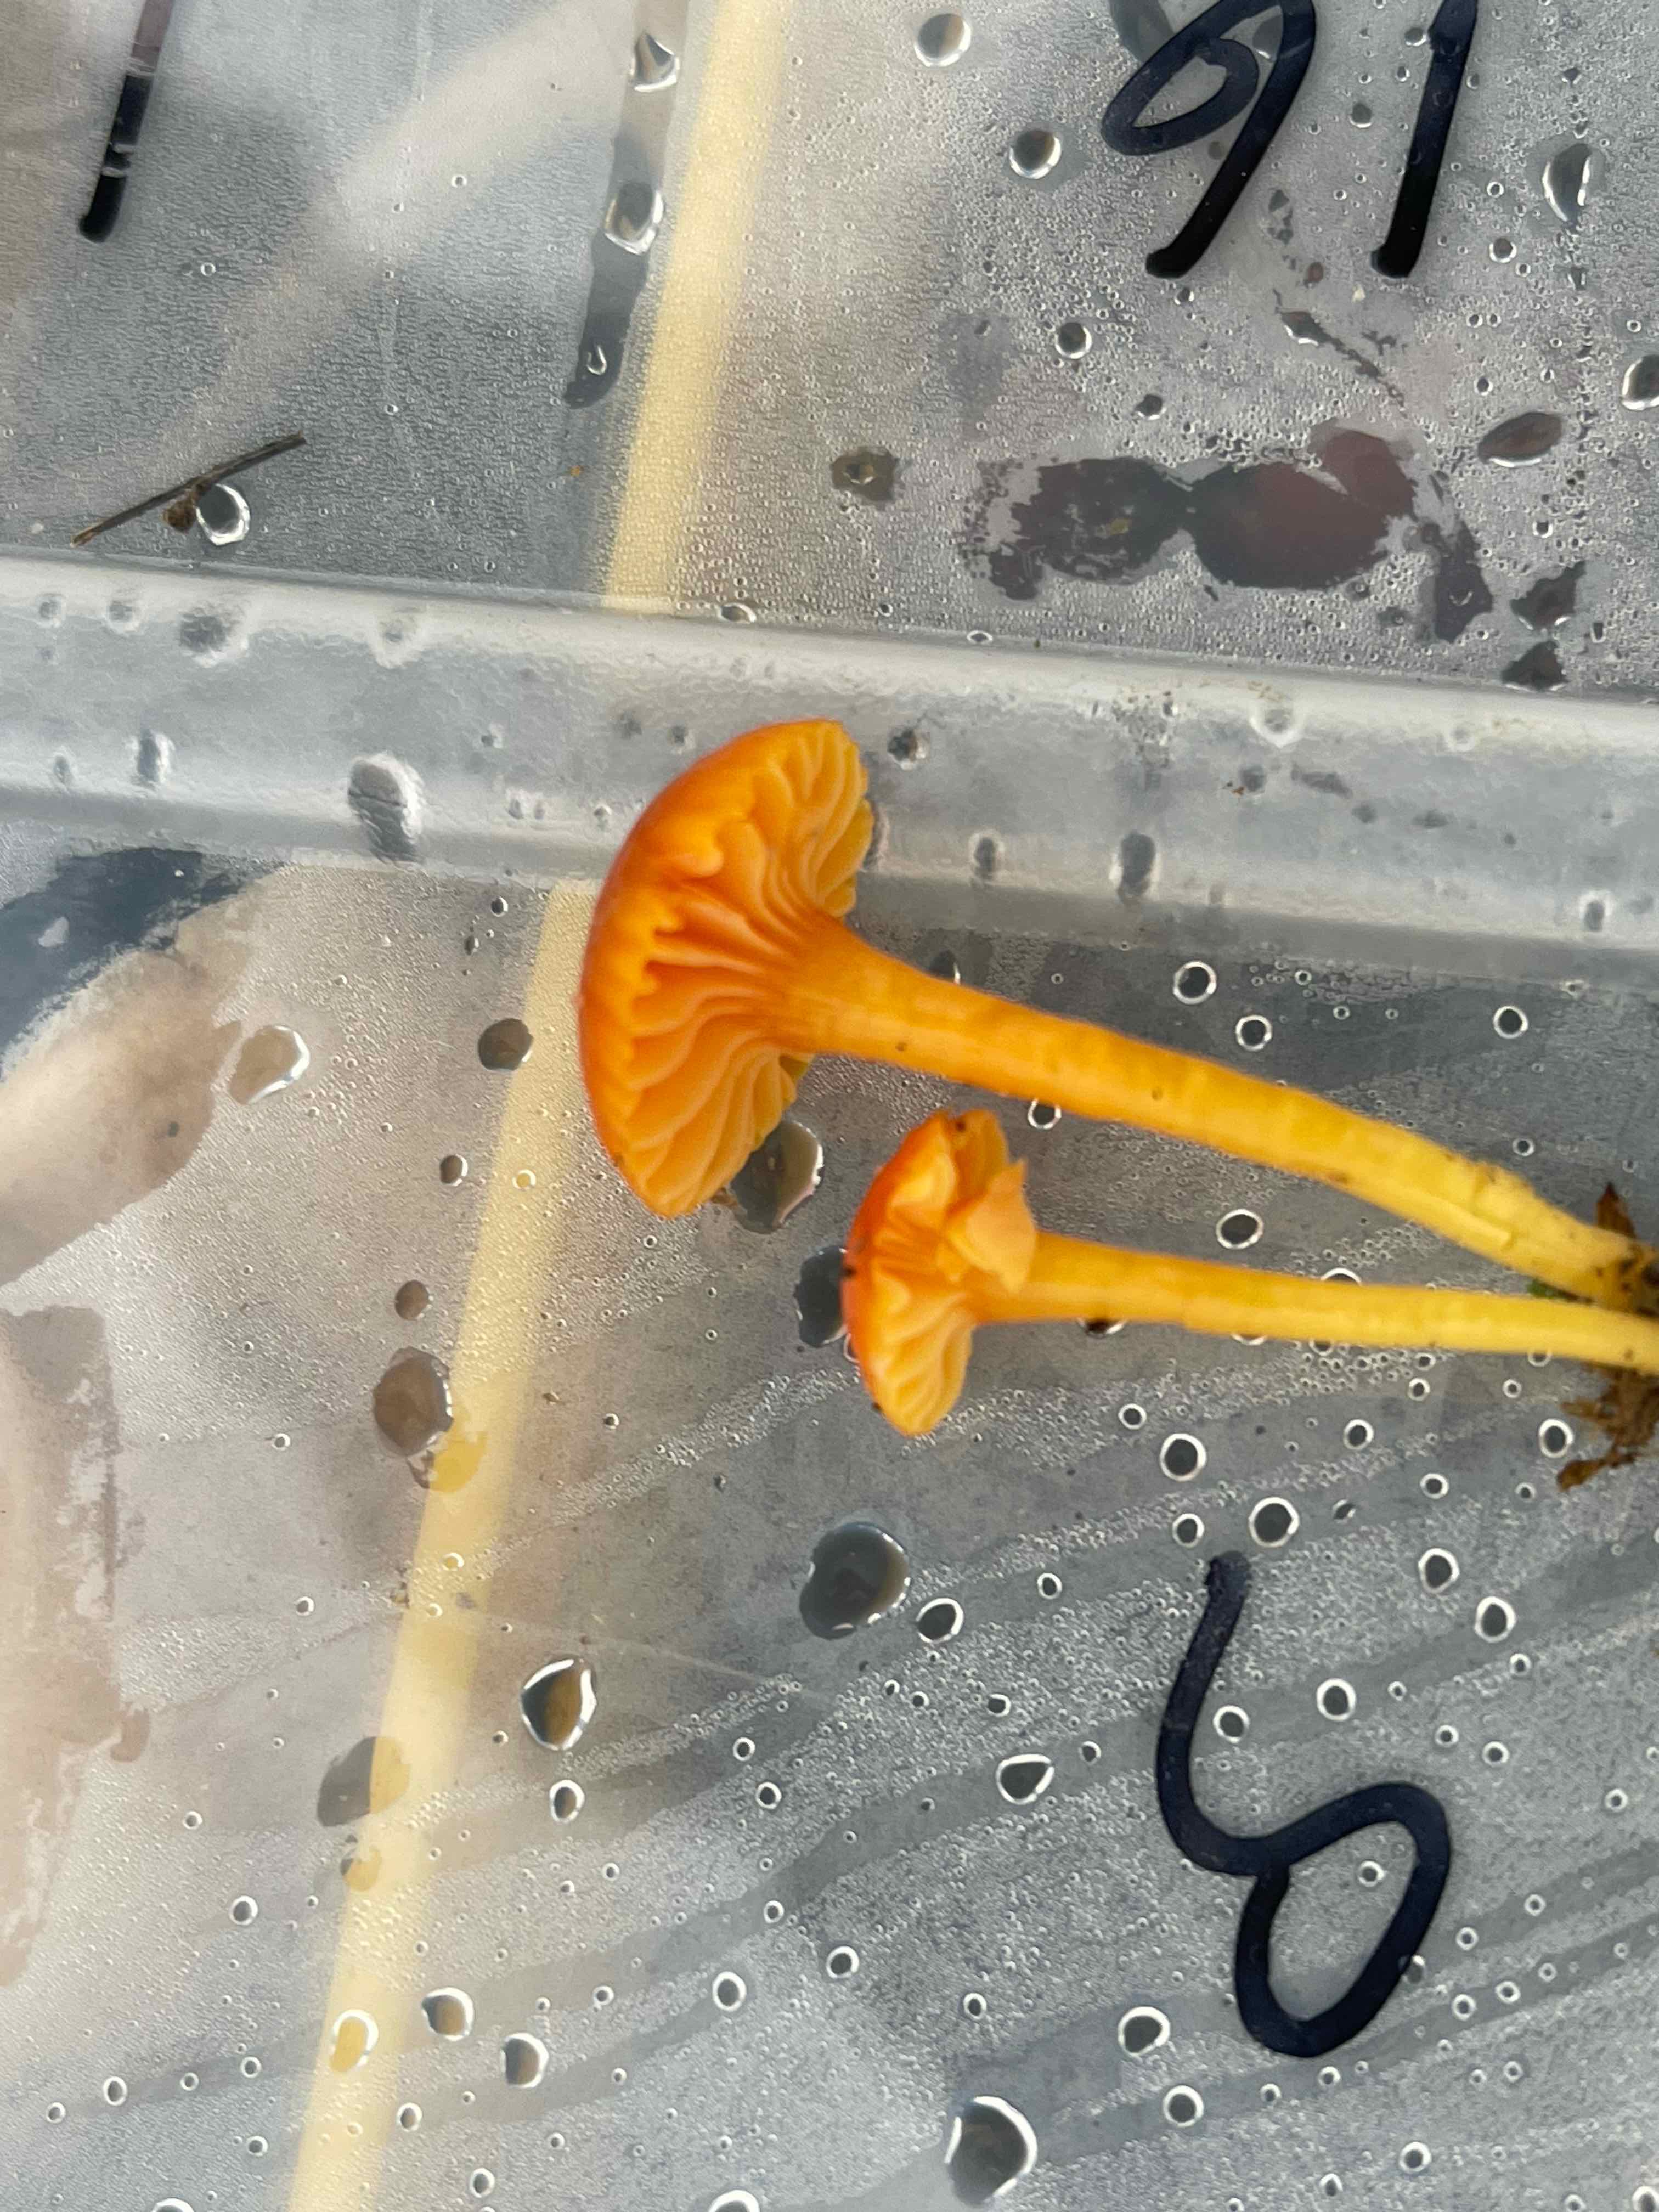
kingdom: Fungi
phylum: Basidiomycota
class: Agaricomycetes
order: Agaricales
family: Hygrophoraceae
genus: Hygrocybe
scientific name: Hygrocybe
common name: vokshat
